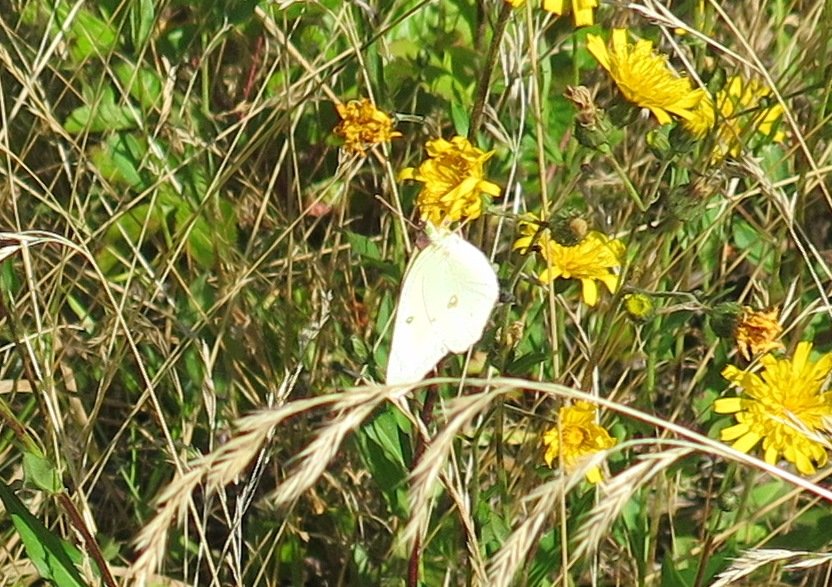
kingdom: Animalia
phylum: Arthropoda
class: Insecta
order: Lepidoptera
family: Pieridae
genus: Colias
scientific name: Colias philodice
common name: Clouded Sulphur
